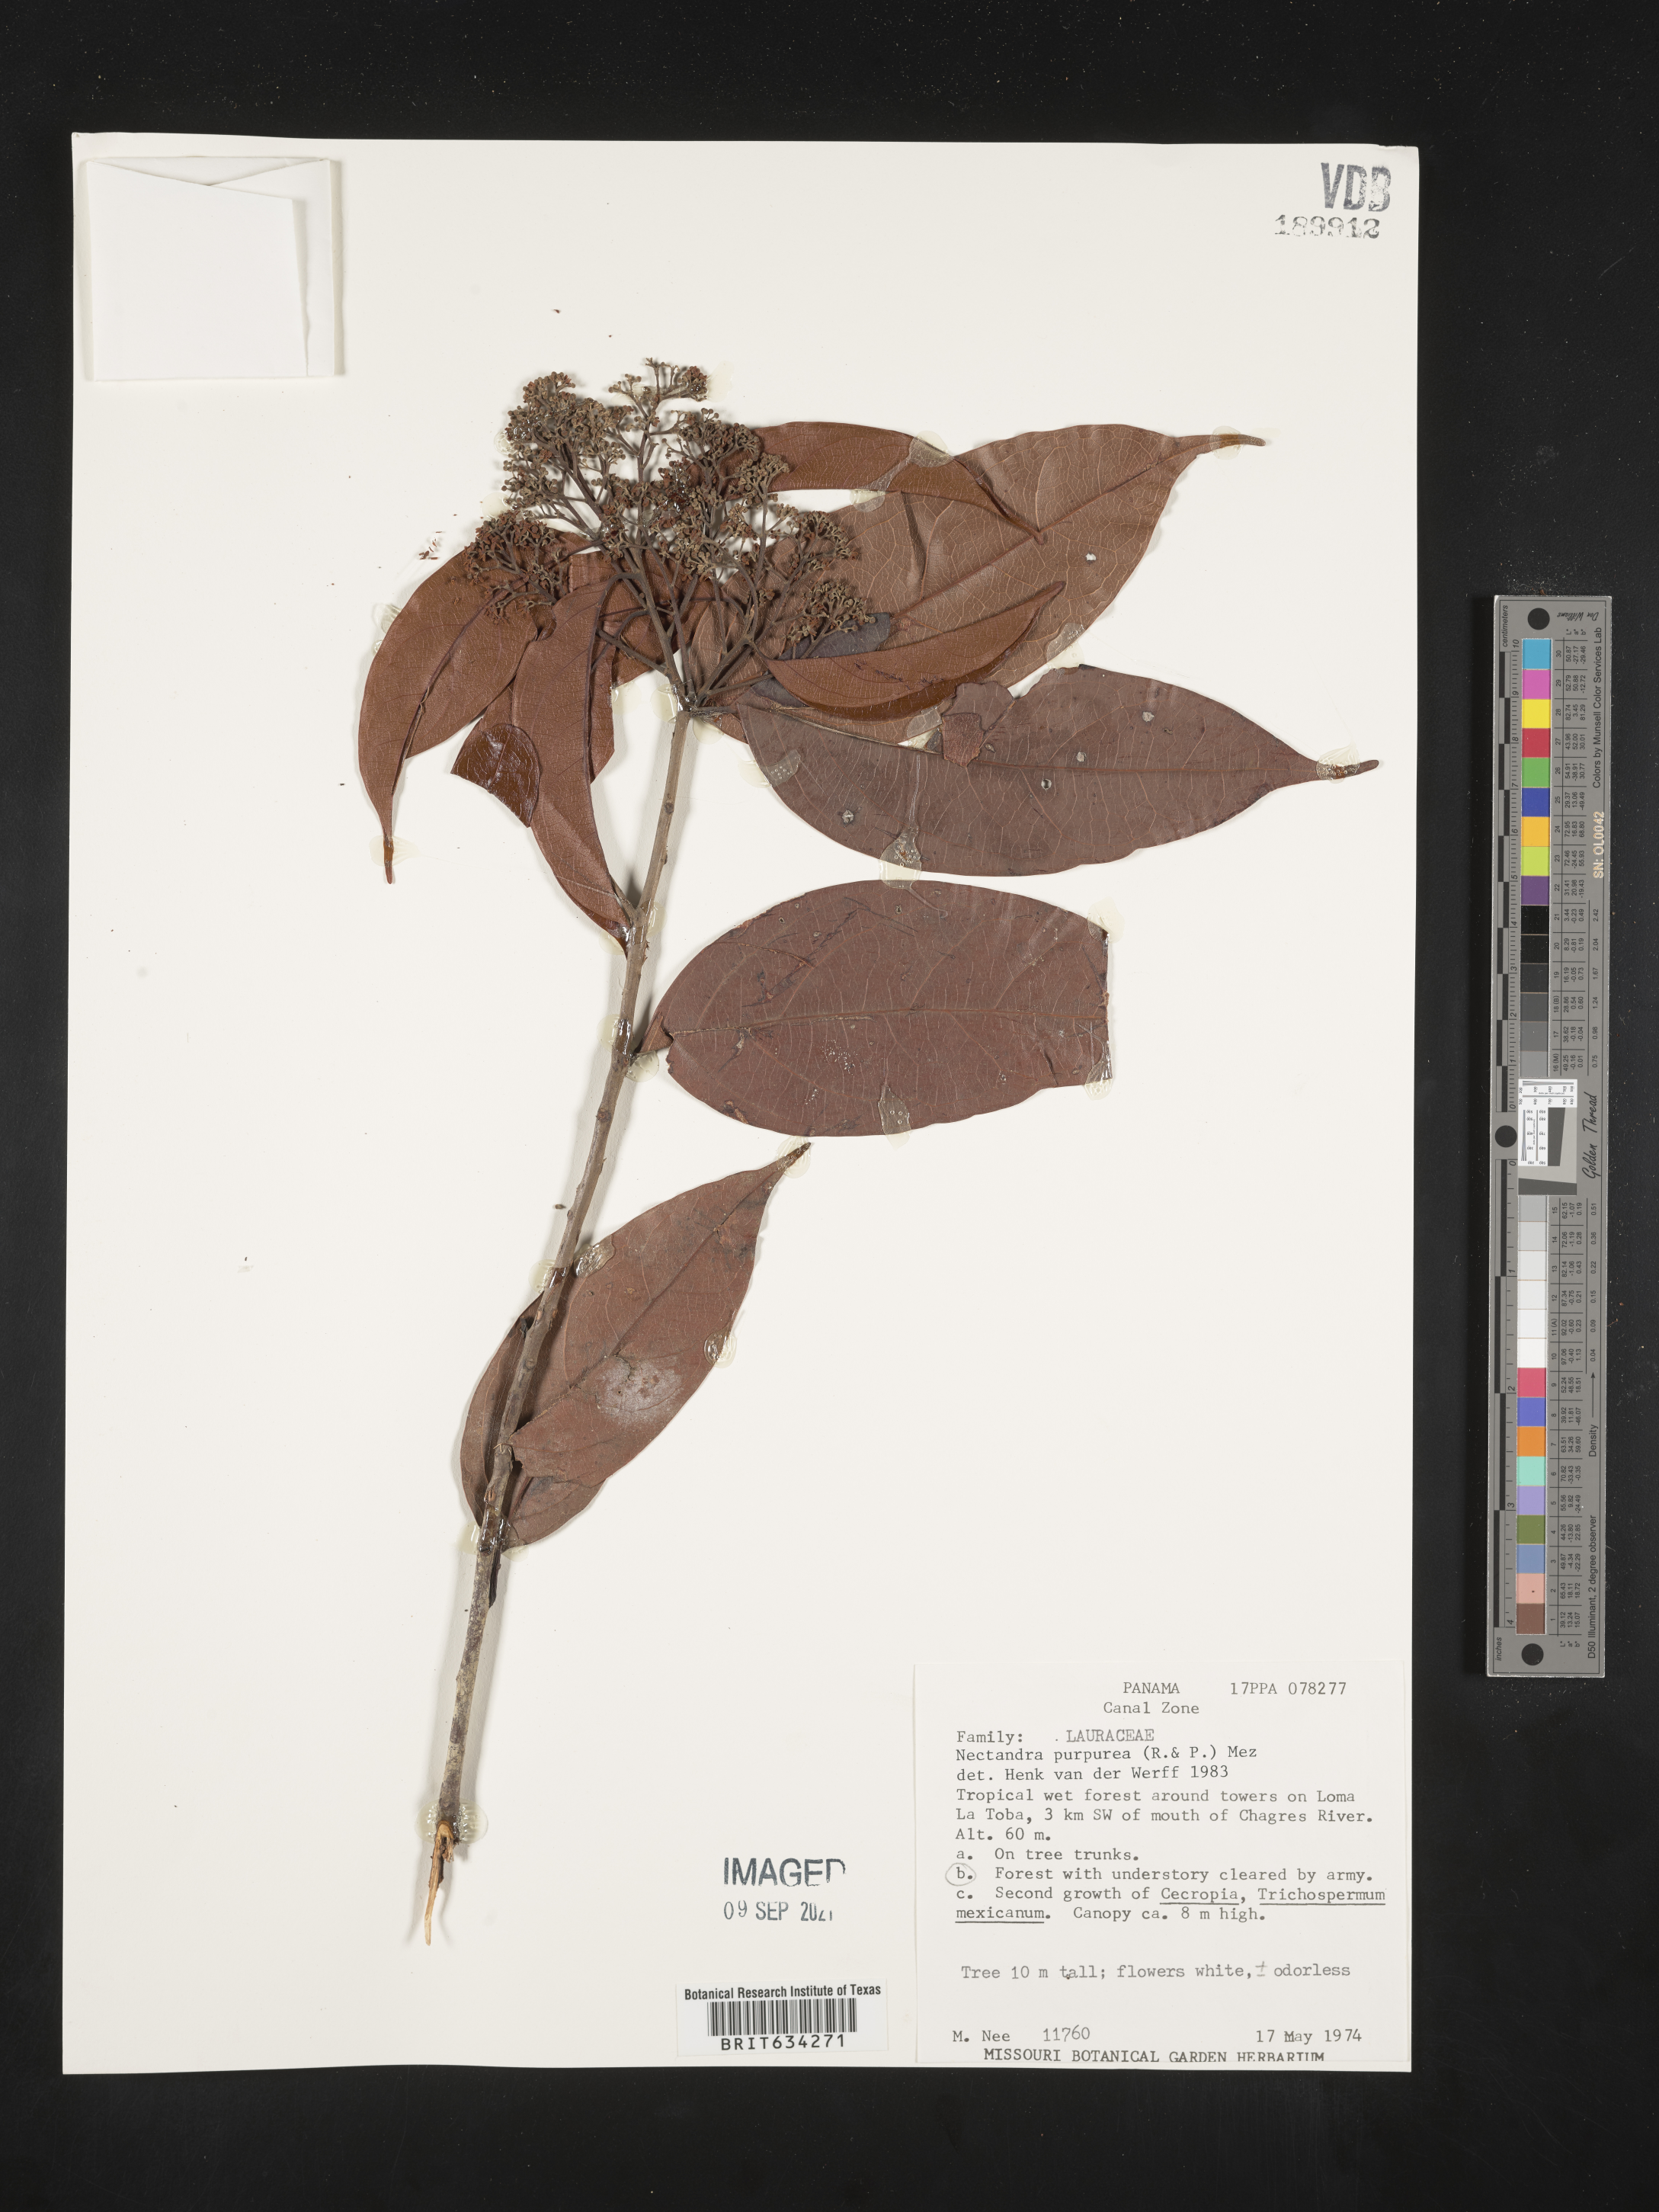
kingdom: Plantae
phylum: Tracheophyta
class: Magnoliopsida
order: Laurales
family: Lauraceae
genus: Nectandra
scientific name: Nectandra
